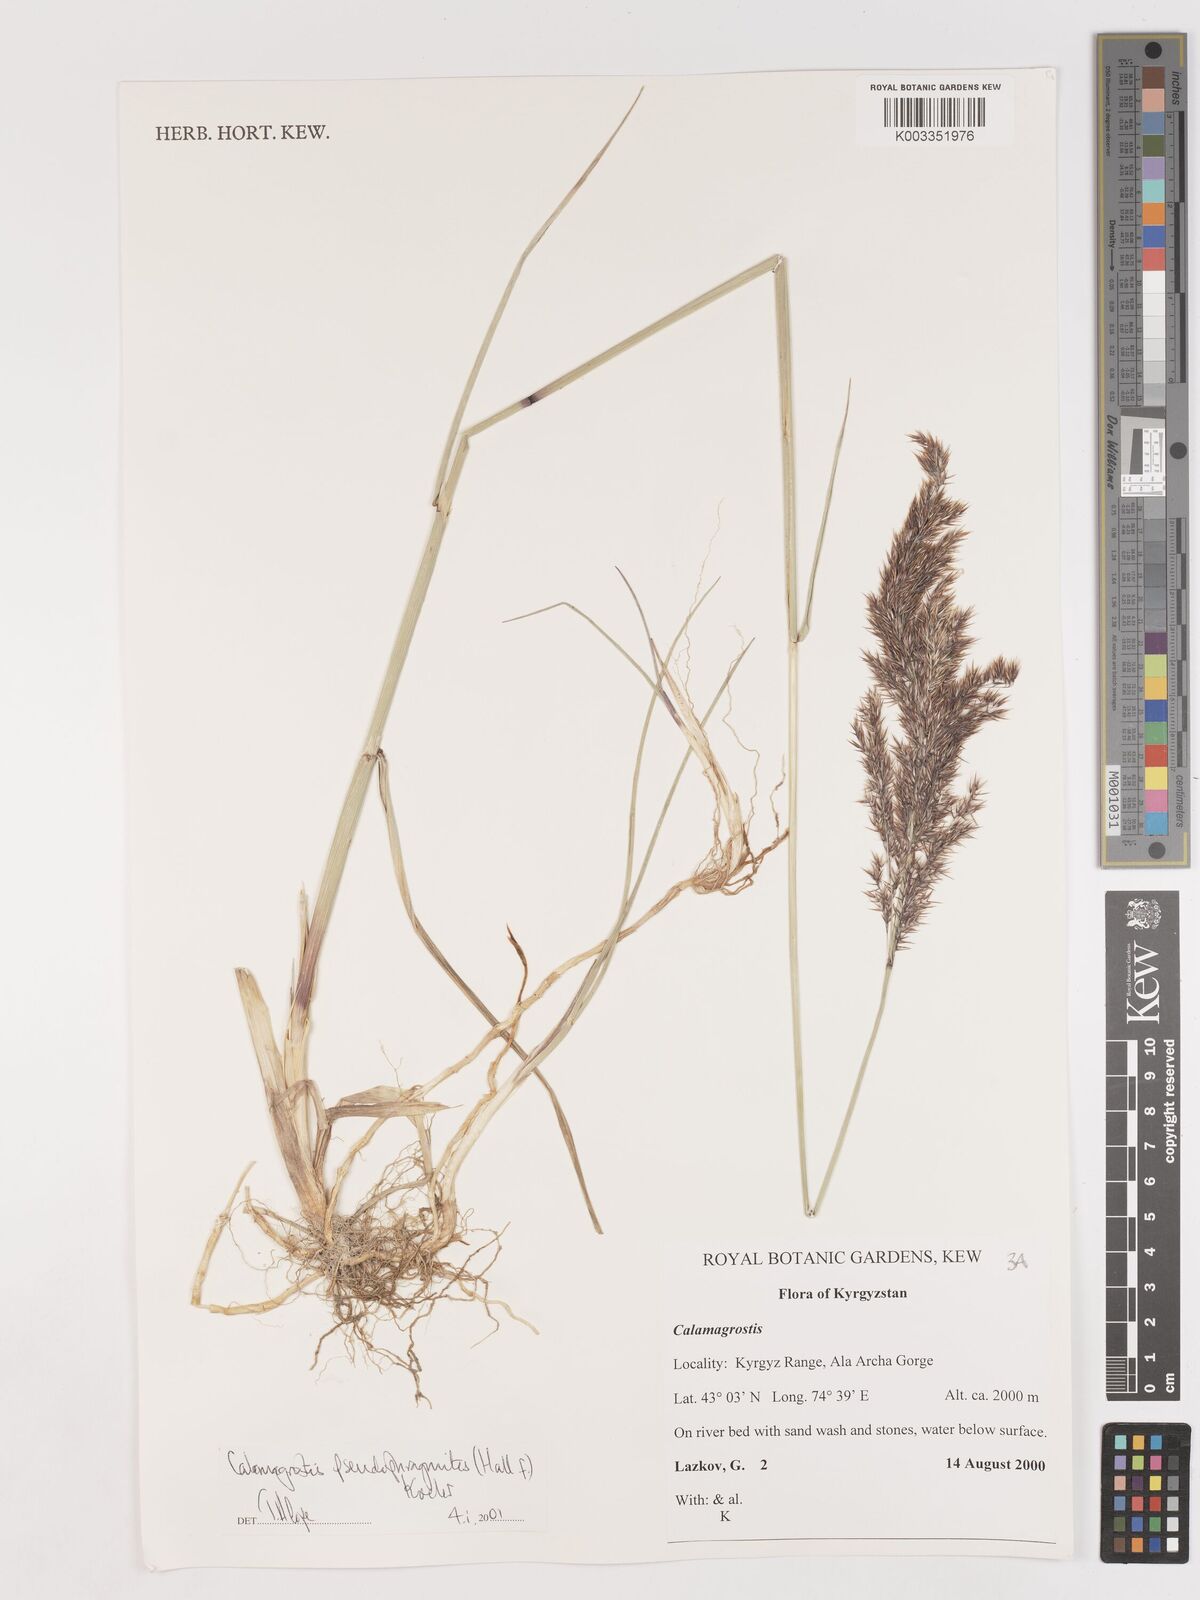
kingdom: Plantae
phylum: Tracheophyta
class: Liliopsida
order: Poales
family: Poaceae
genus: Calamagrostis
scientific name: Calamagrostis pseudophragmites
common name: Coastal small-reed
